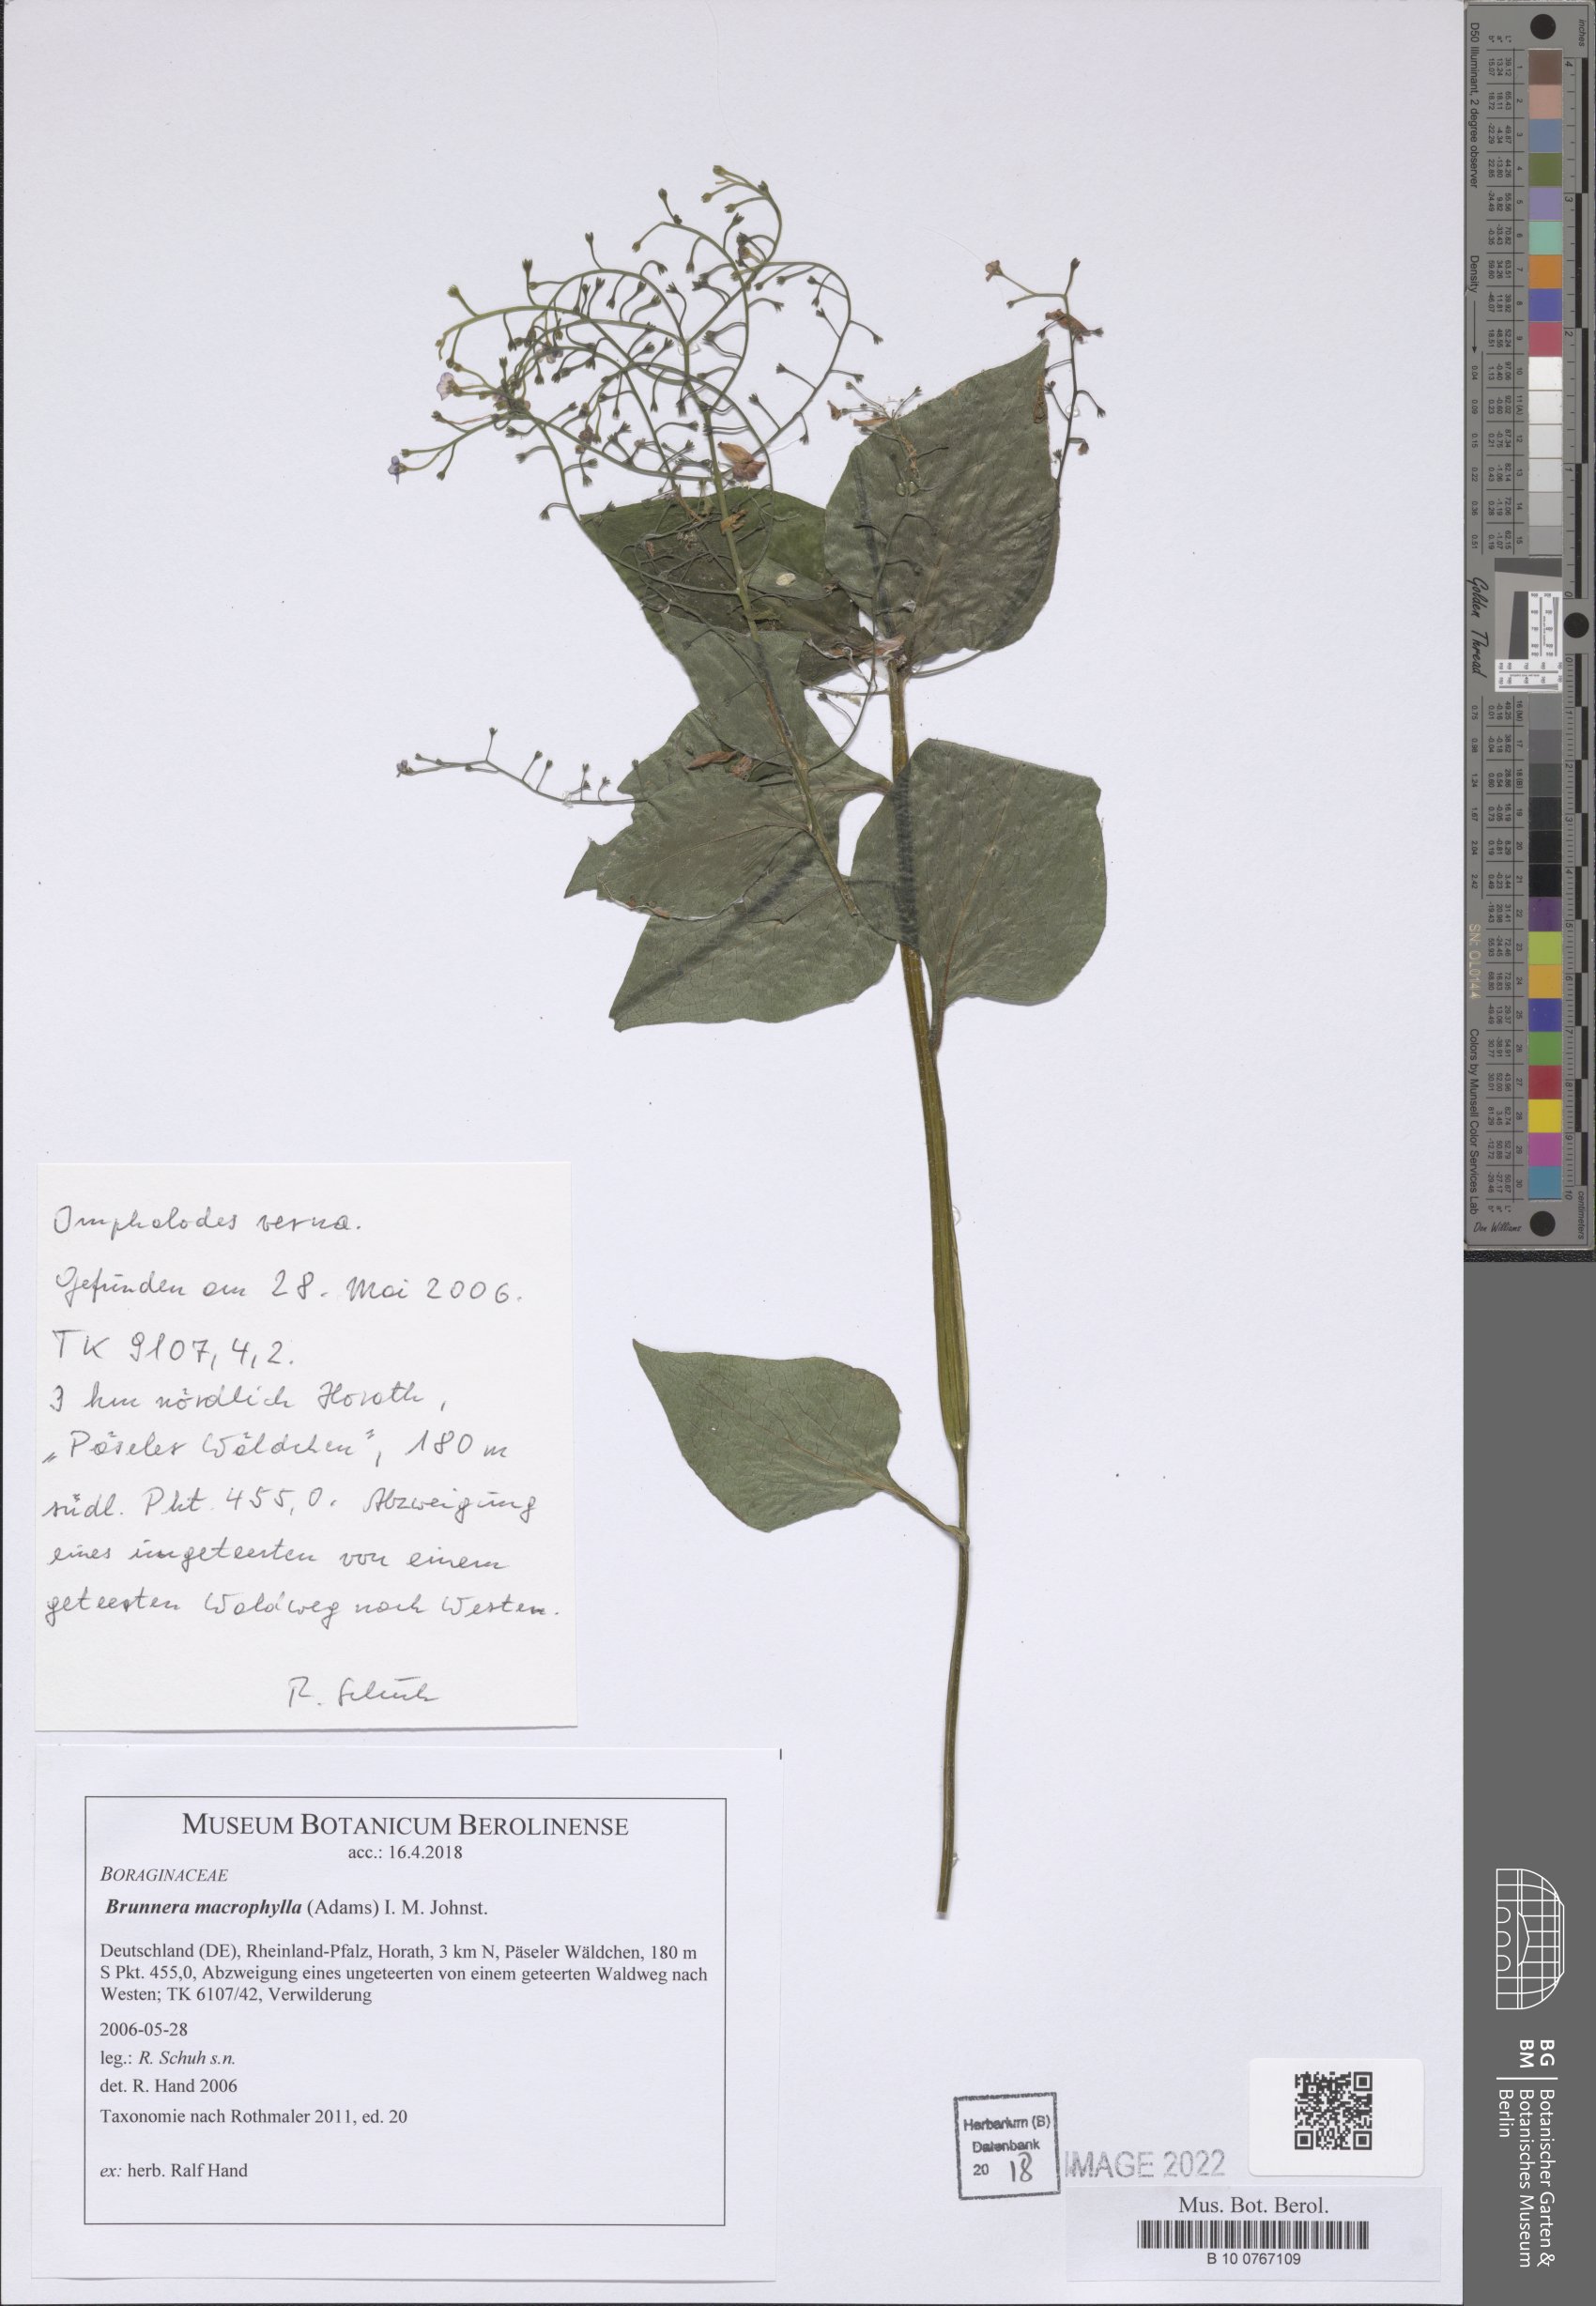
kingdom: Plantae
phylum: Tracheophyta
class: Magnoliopsida
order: Boraginales
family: Boraginaceae
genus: Brunnera
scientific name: Brunnera macrophylla
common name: Great forget-me-not
